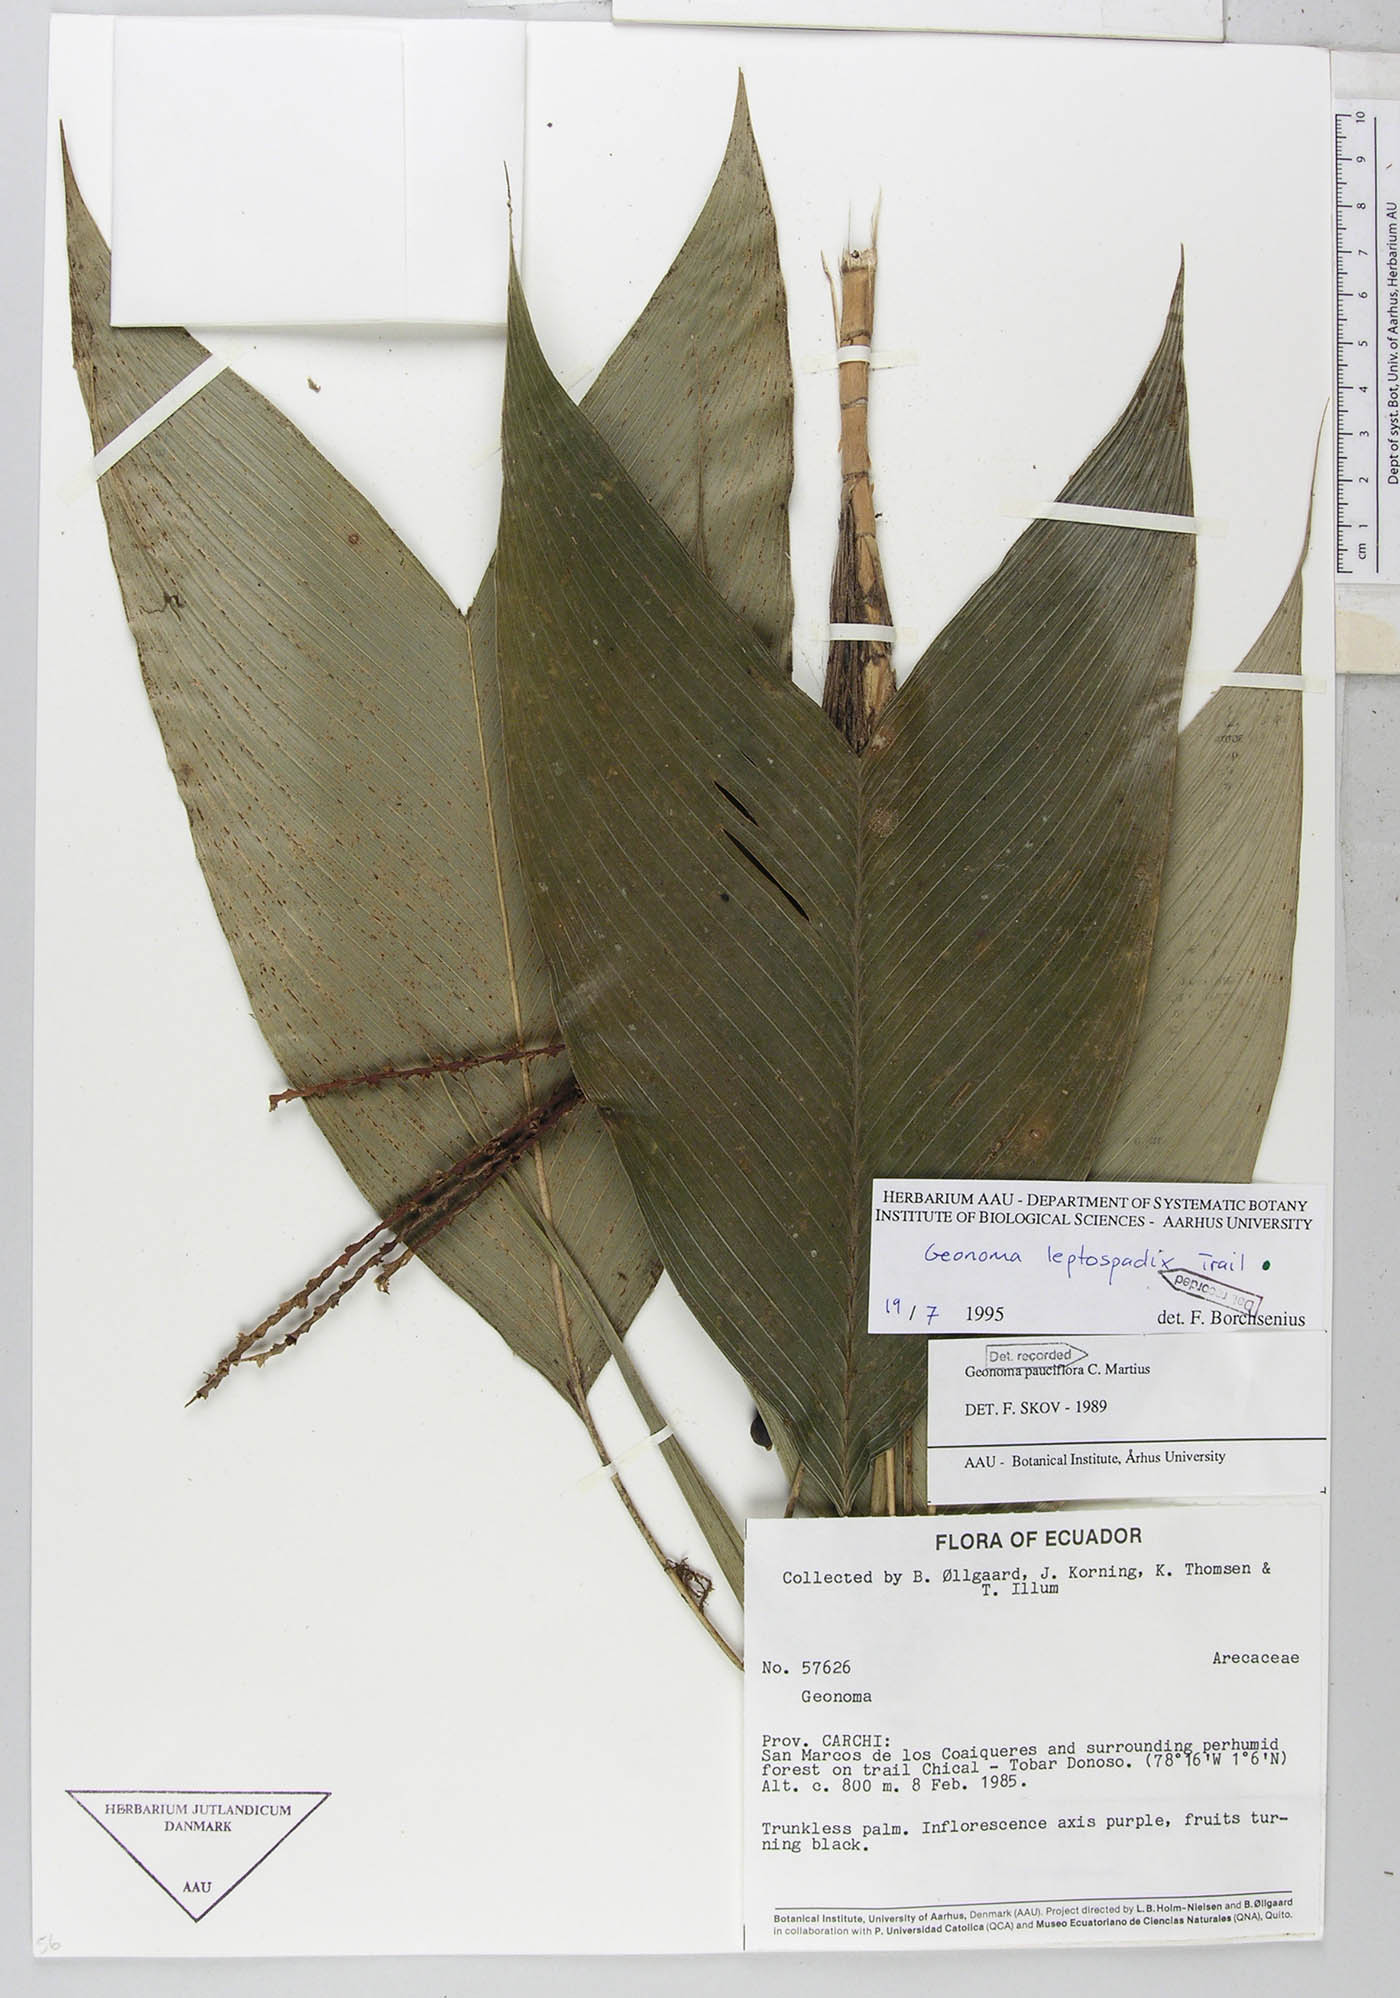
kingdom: Plantae
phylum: Tracheophyta
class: Liliopsida
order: Arecales
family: Arecaceae
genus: Geonoma
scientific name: Geonoma lanata
